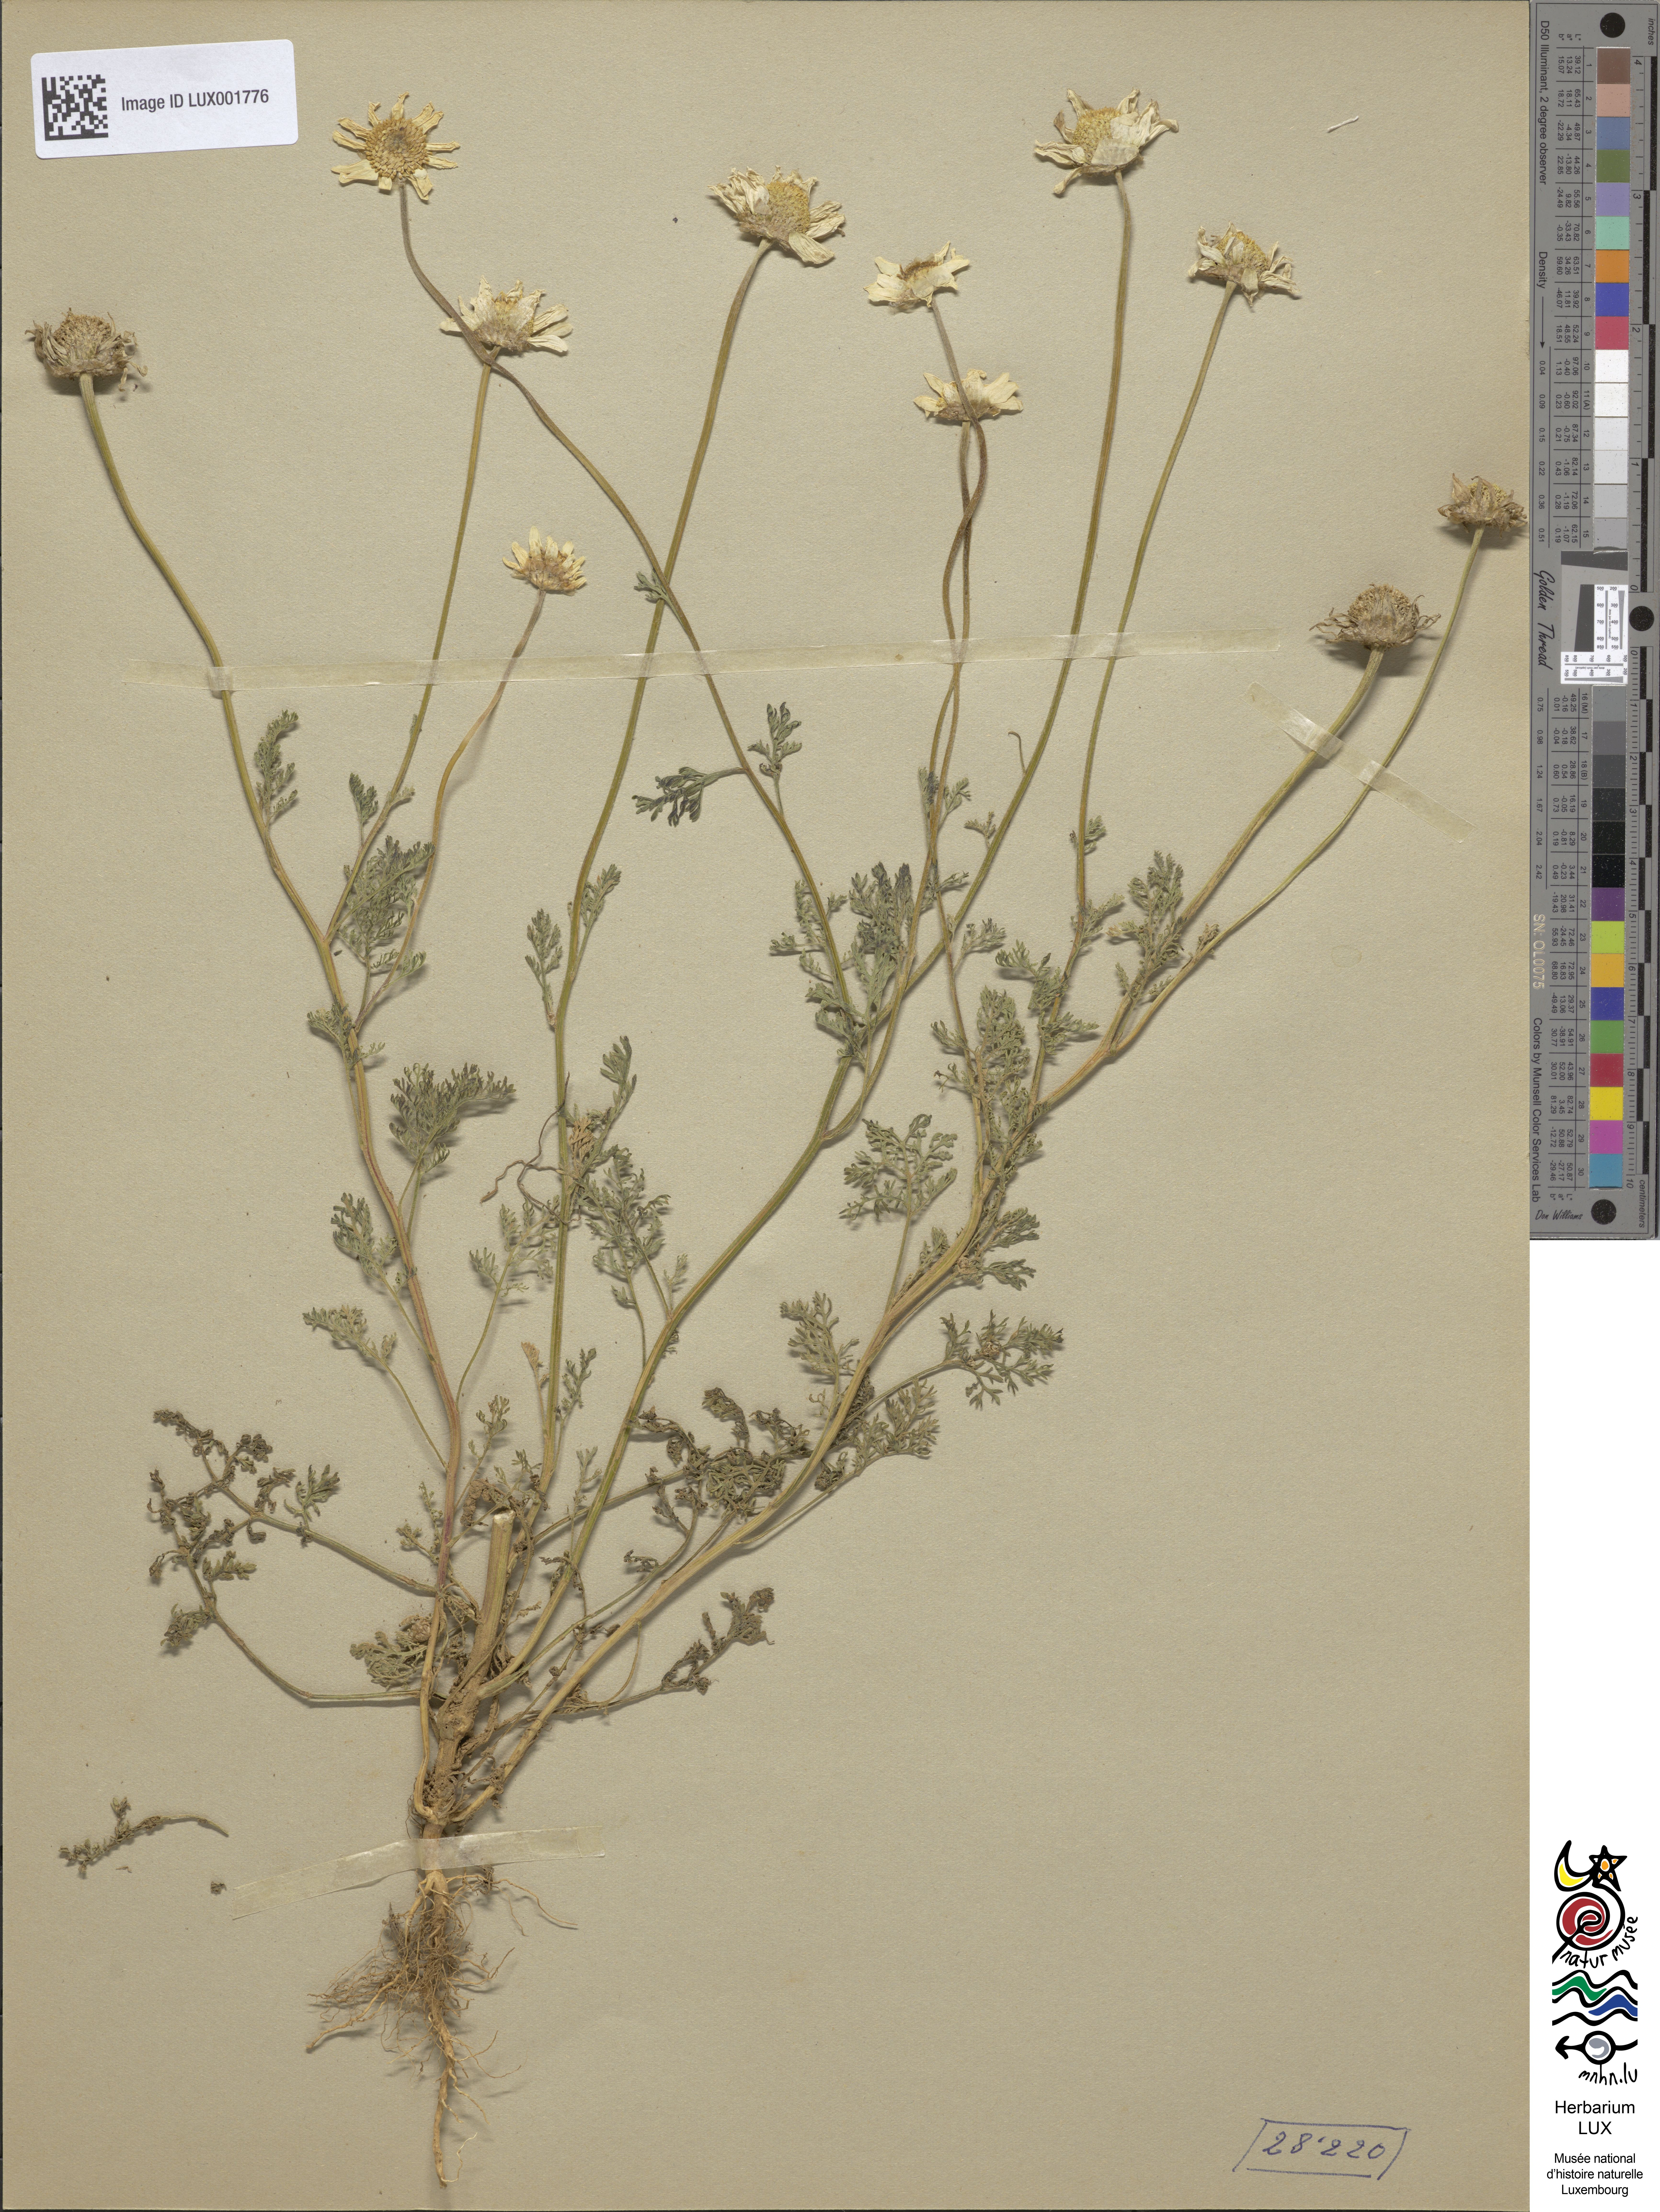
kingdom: Plantae
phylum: Tracheophyta
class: Magnoliopsida
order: Asterales
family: Asteraceae
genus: Anthemis
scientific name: Anthemis hyalina
